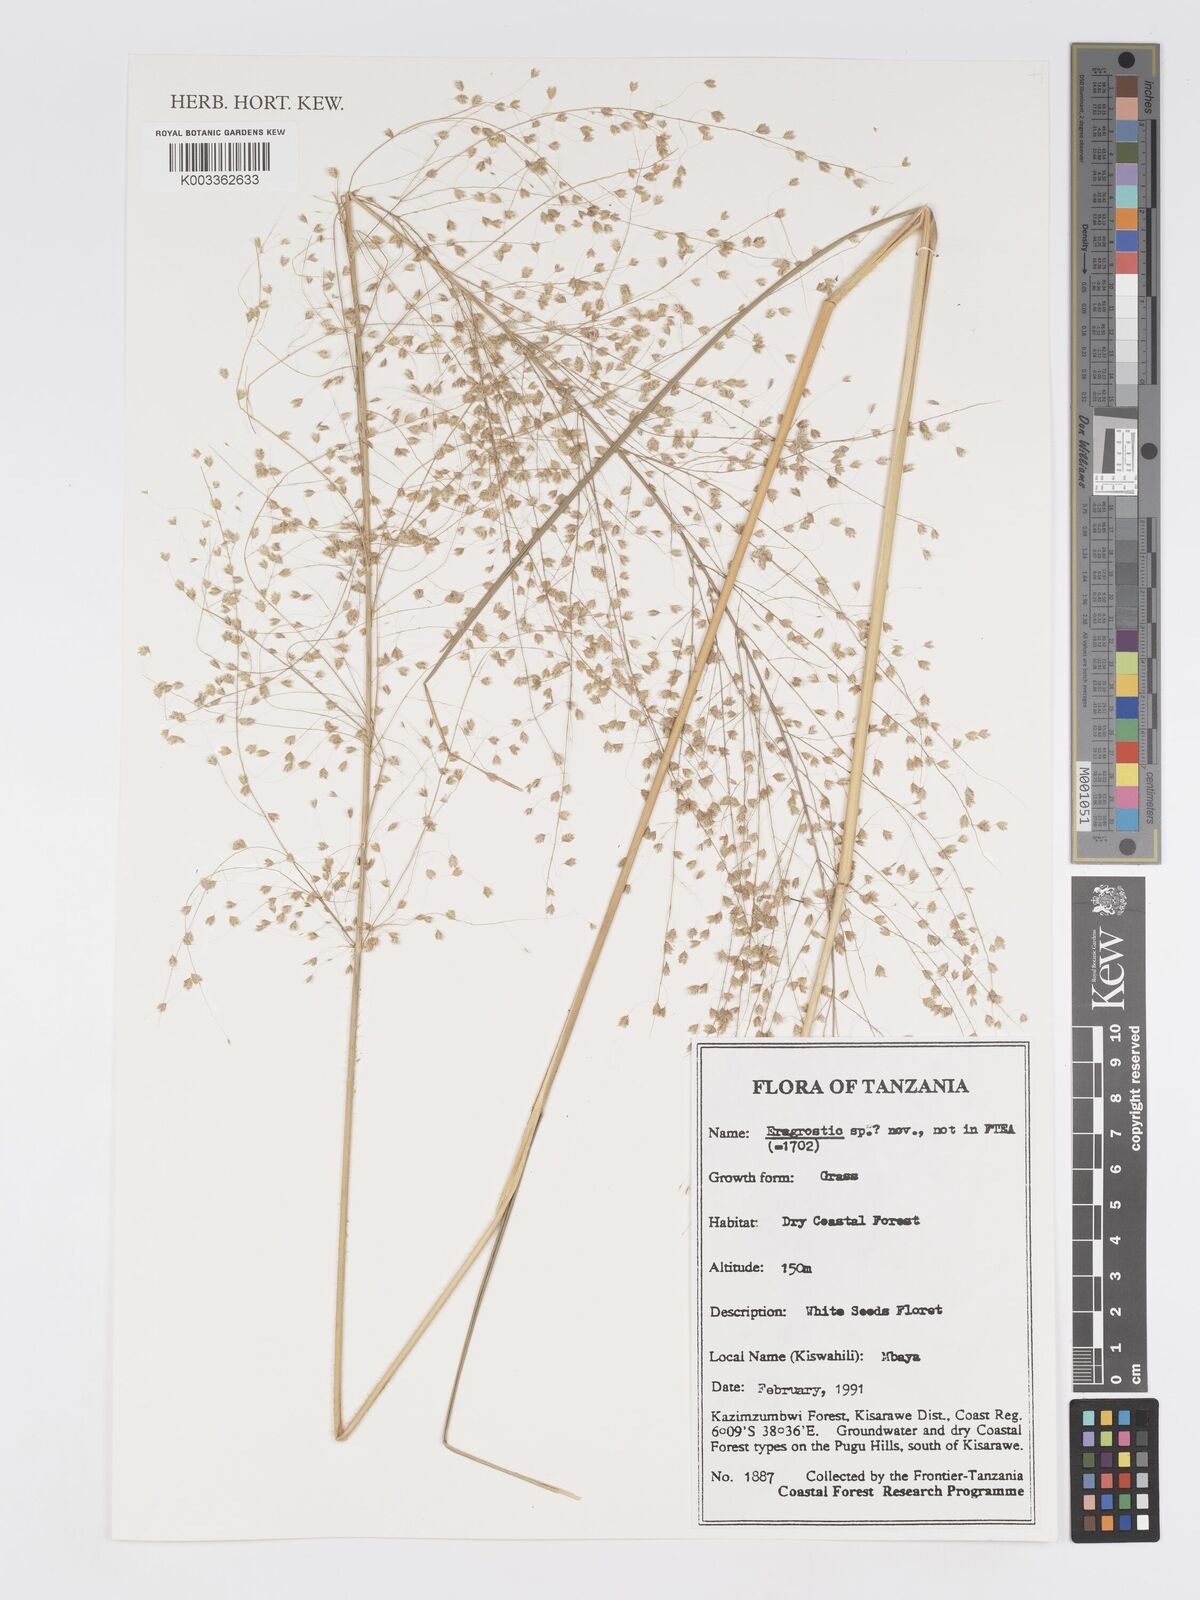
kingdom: Plantae
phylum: Tracheophyta
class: Liliopsida
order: Poales
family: Poaceae
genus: Eragrostis
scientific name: Eragrostis
